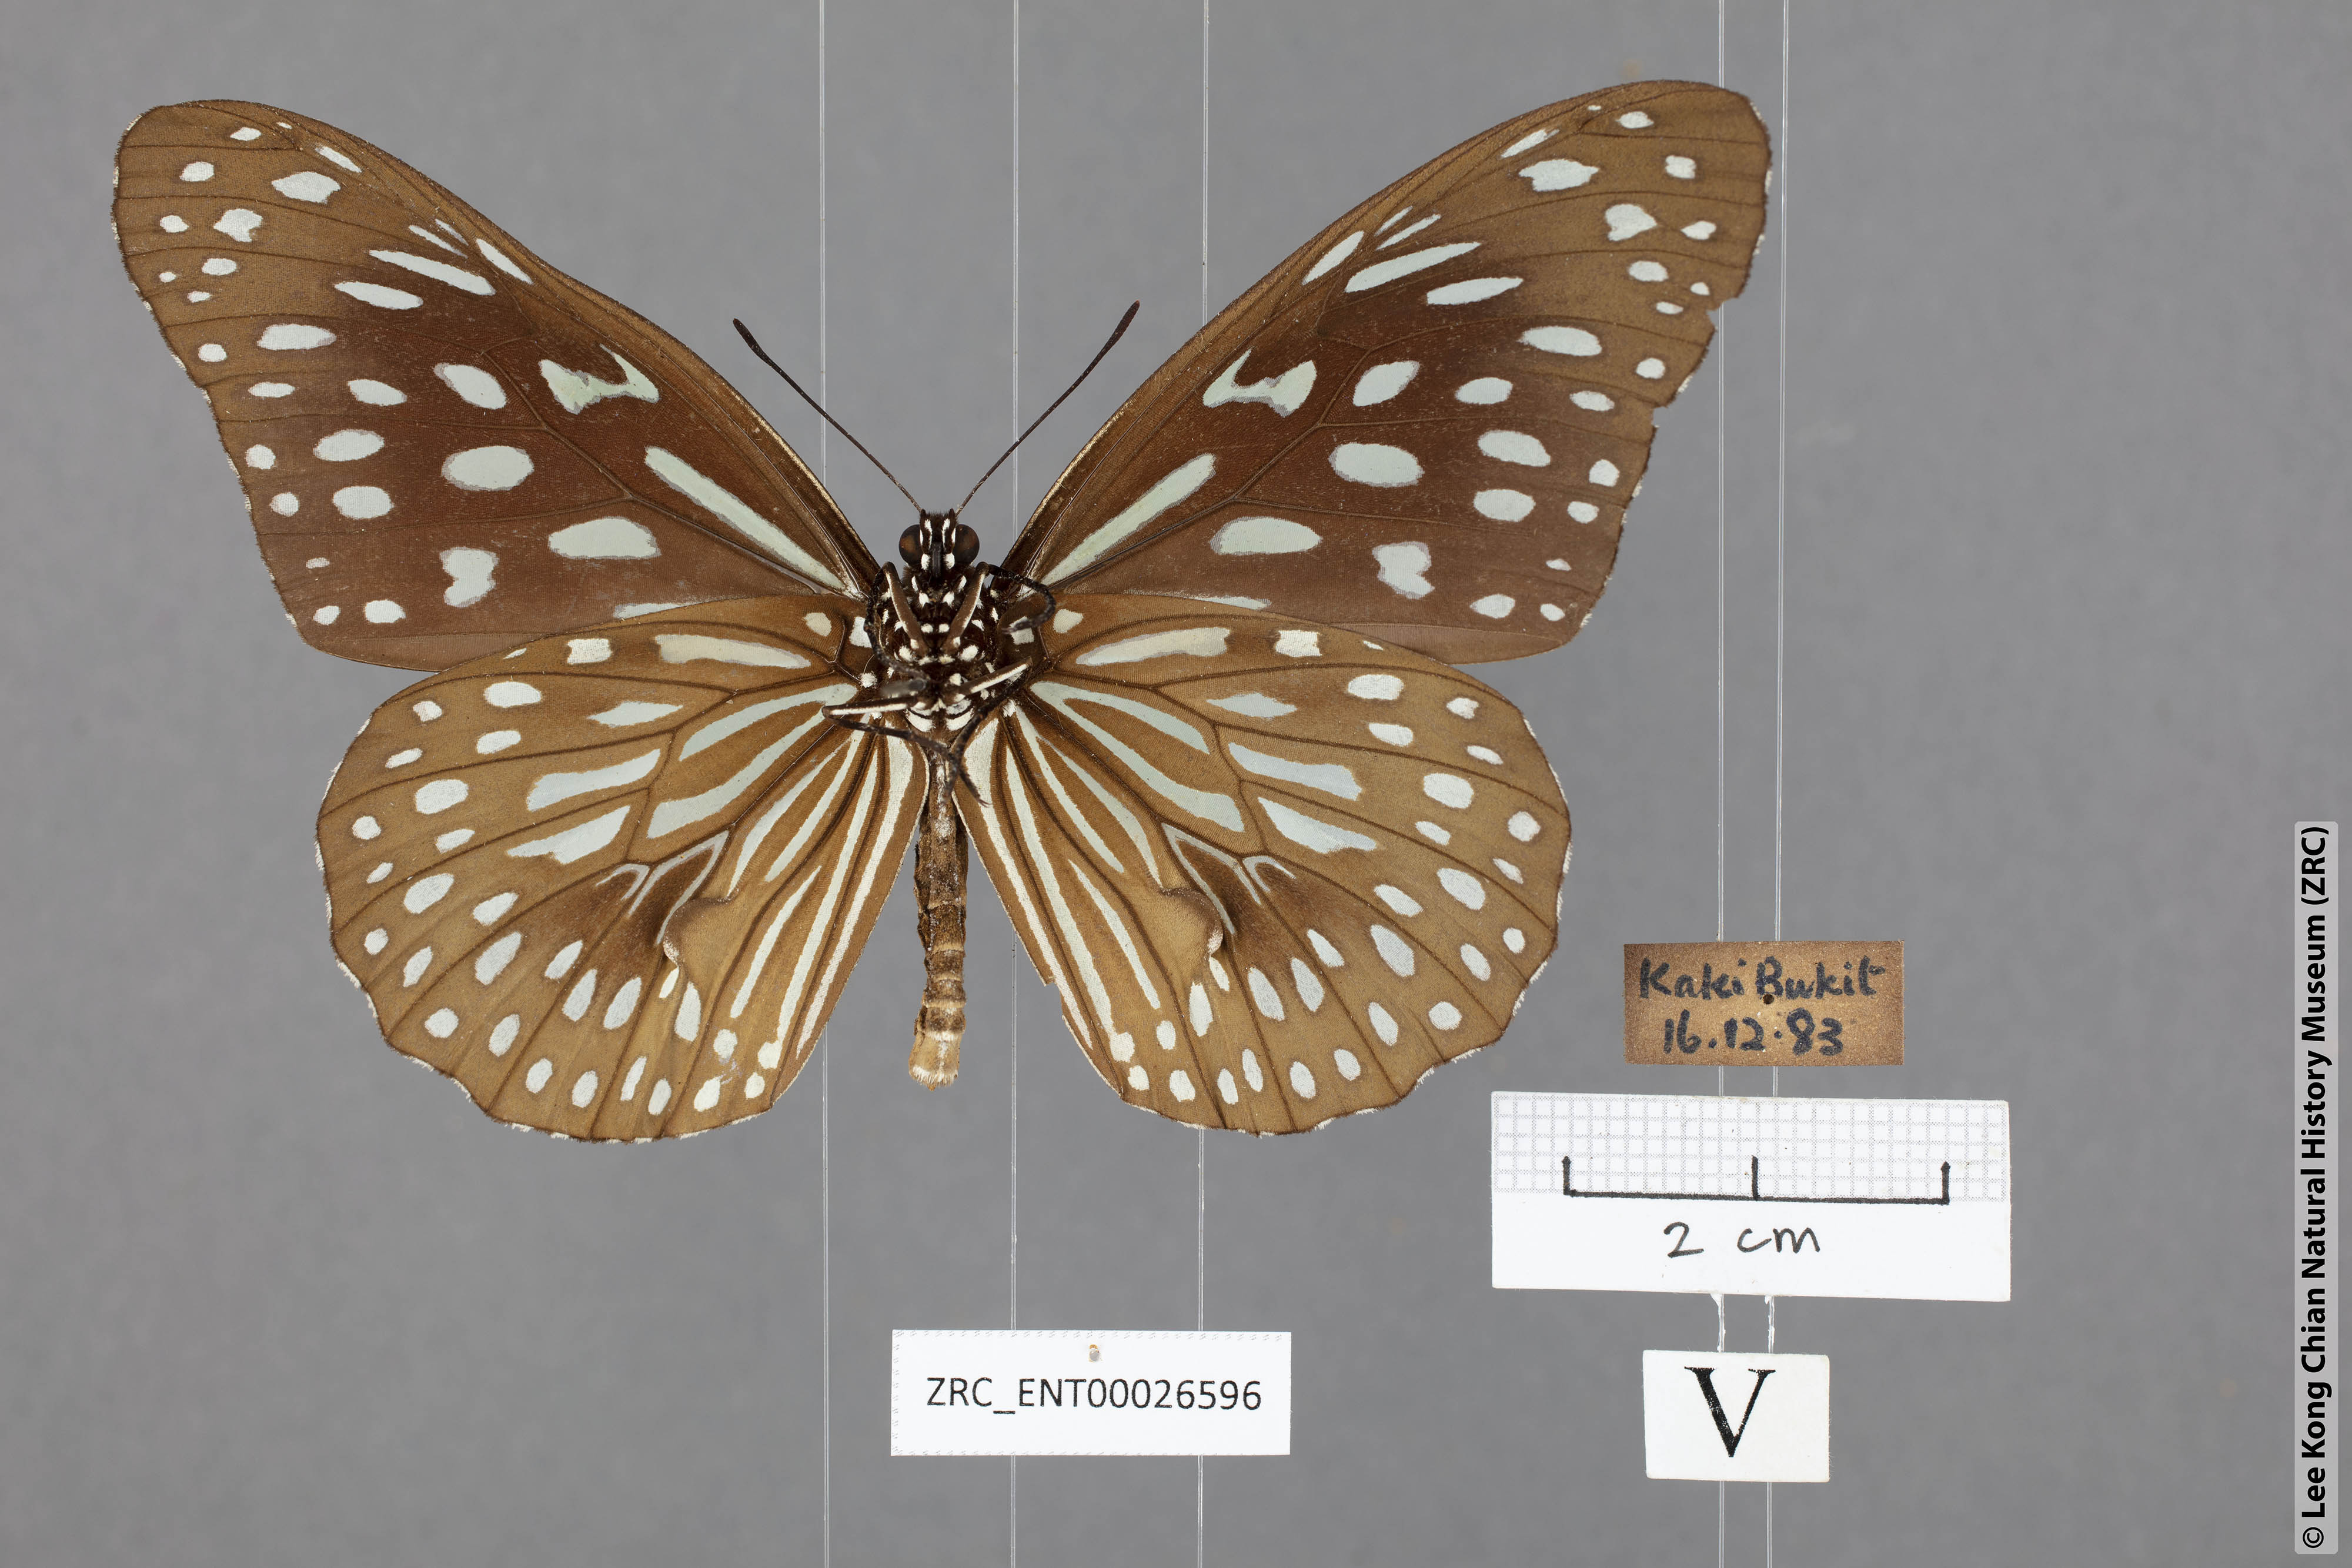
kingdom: Animalia
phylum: Arthropoda
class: Insecta
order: Lepidoptera
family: Nymphalidae
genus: Tirumala
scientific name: Tirumala septentrionis
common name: Dark blue tiger butterfly
